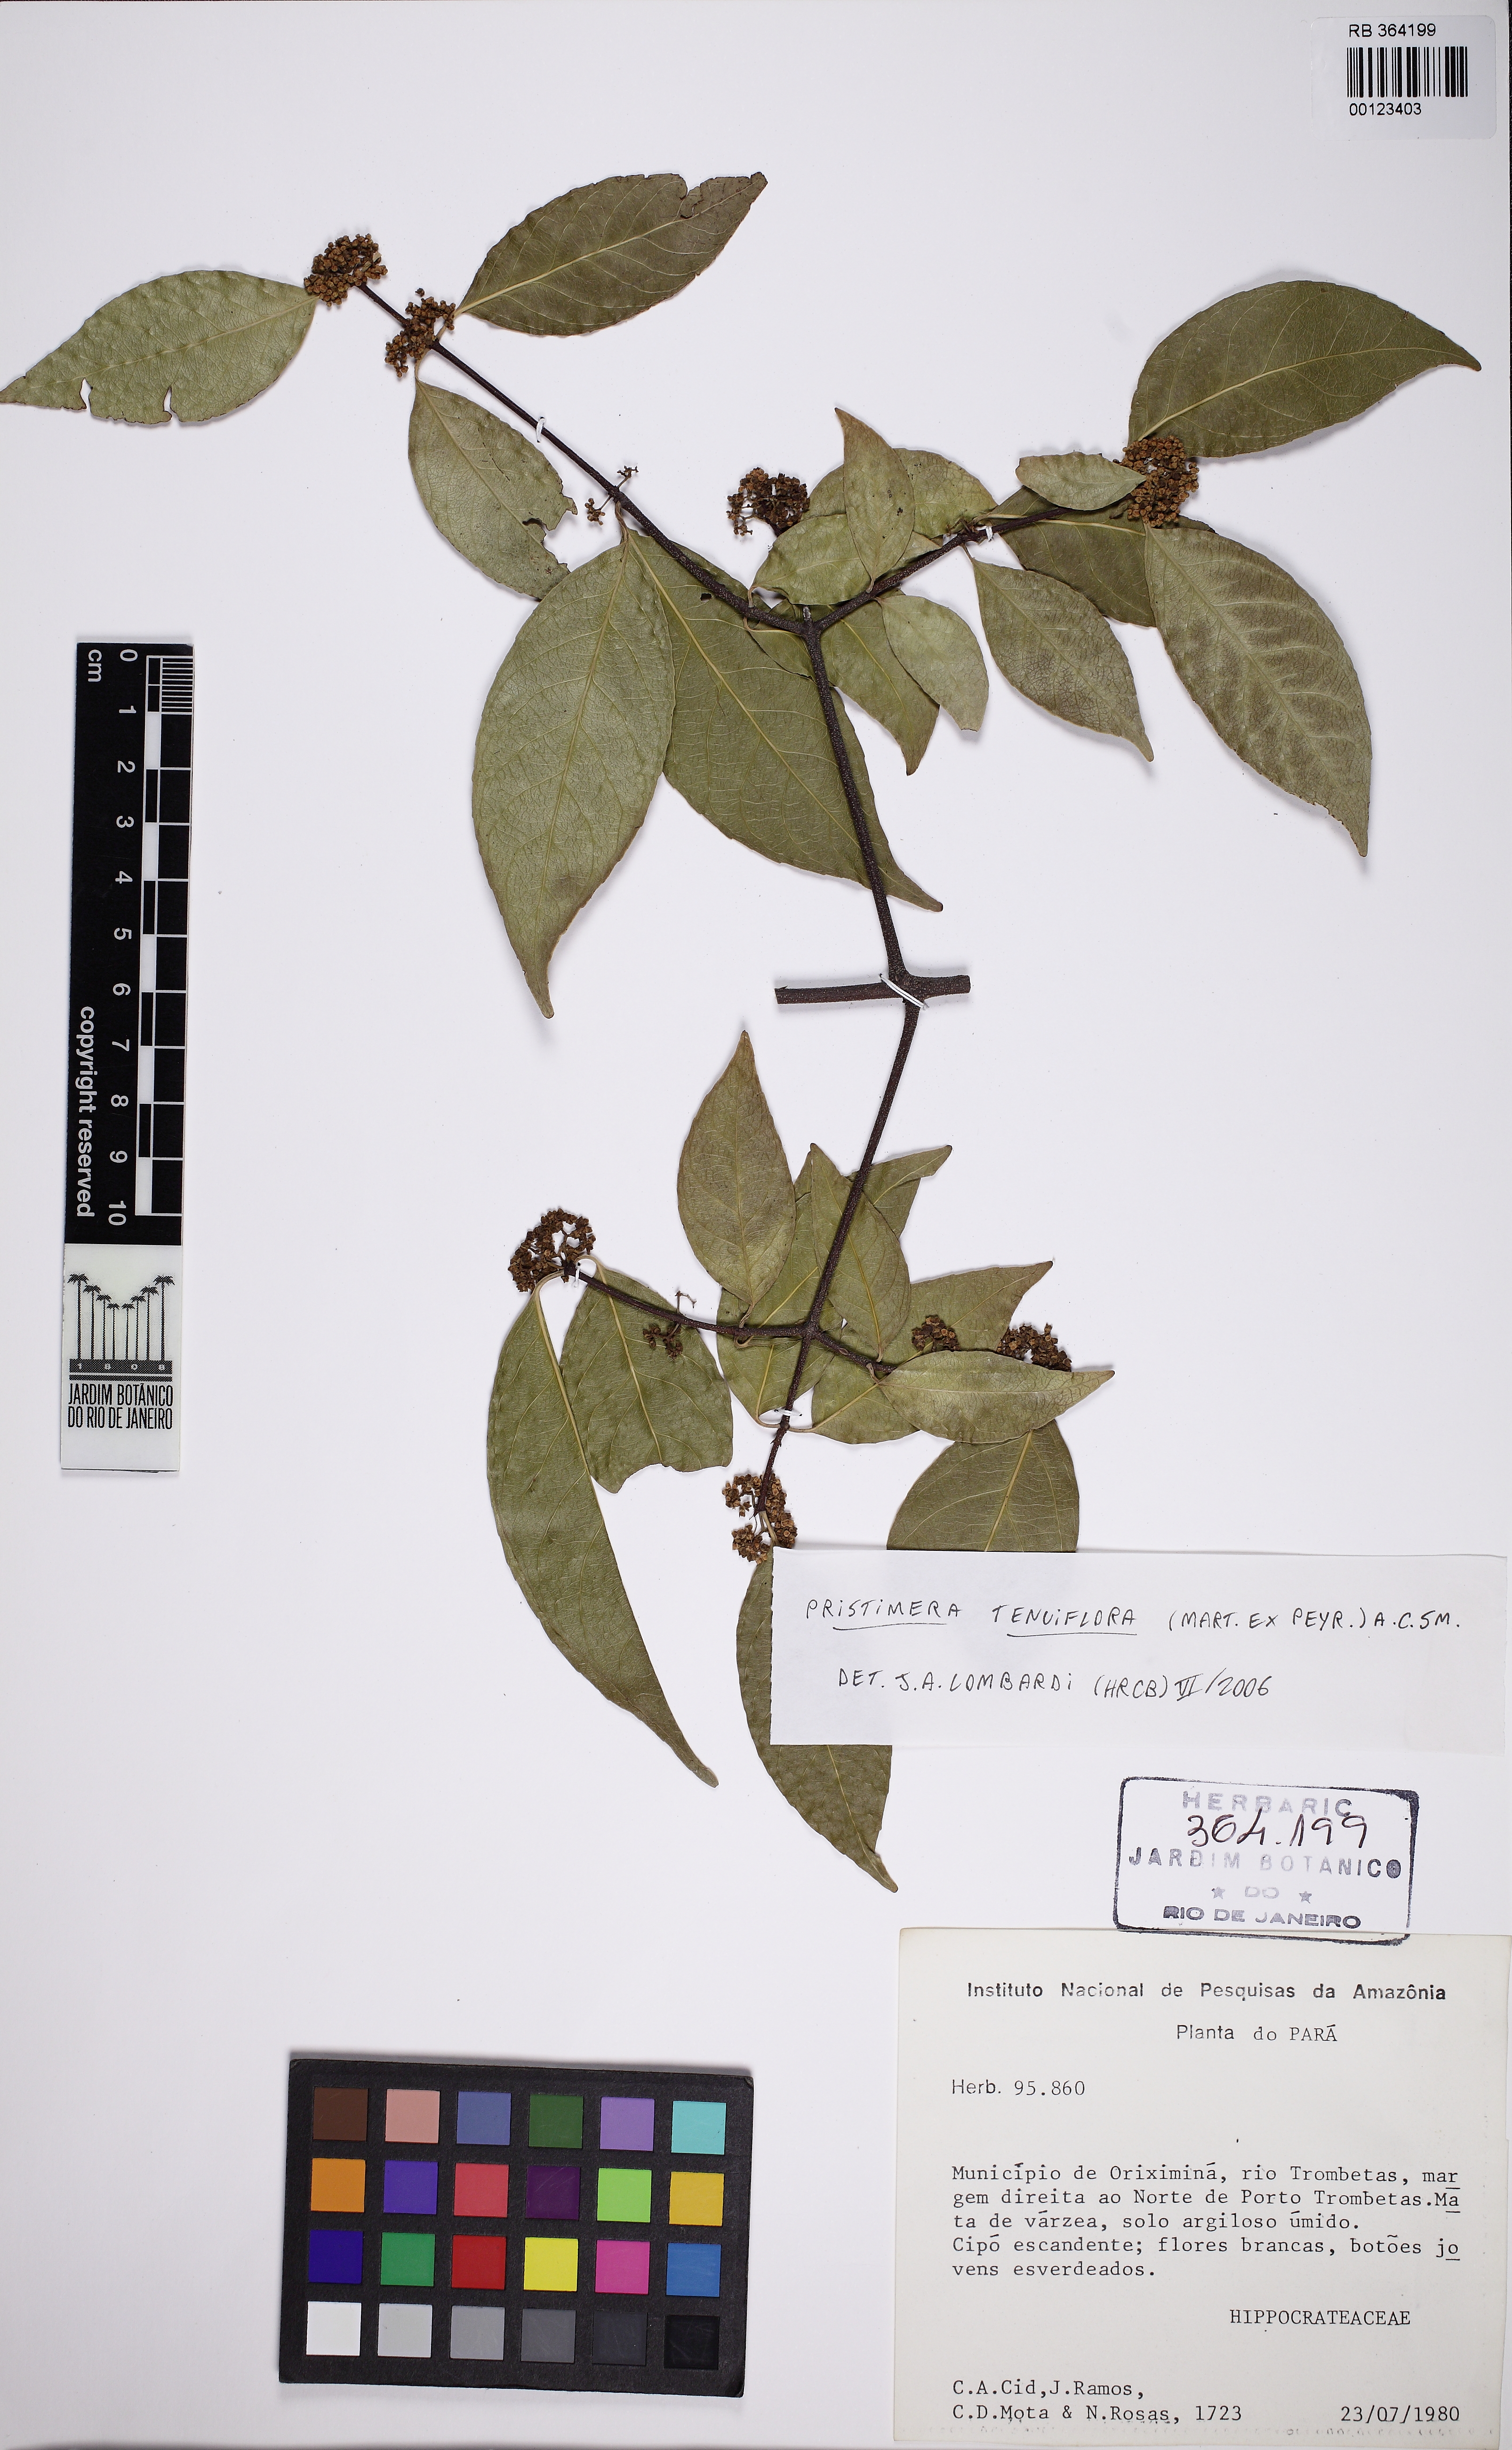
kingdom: Plantae
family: Hippocrateaceae
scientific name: Hippocrateaceae
